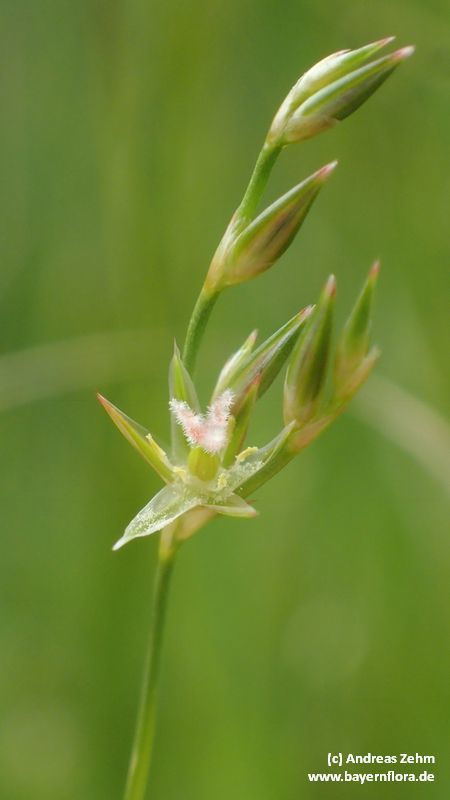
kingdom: Plantae
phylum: Tracheophyta
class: Liliopsida
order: Poales
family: Juncaceae
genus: Juncus
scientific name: Juncus tenuis
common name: Slender rush
